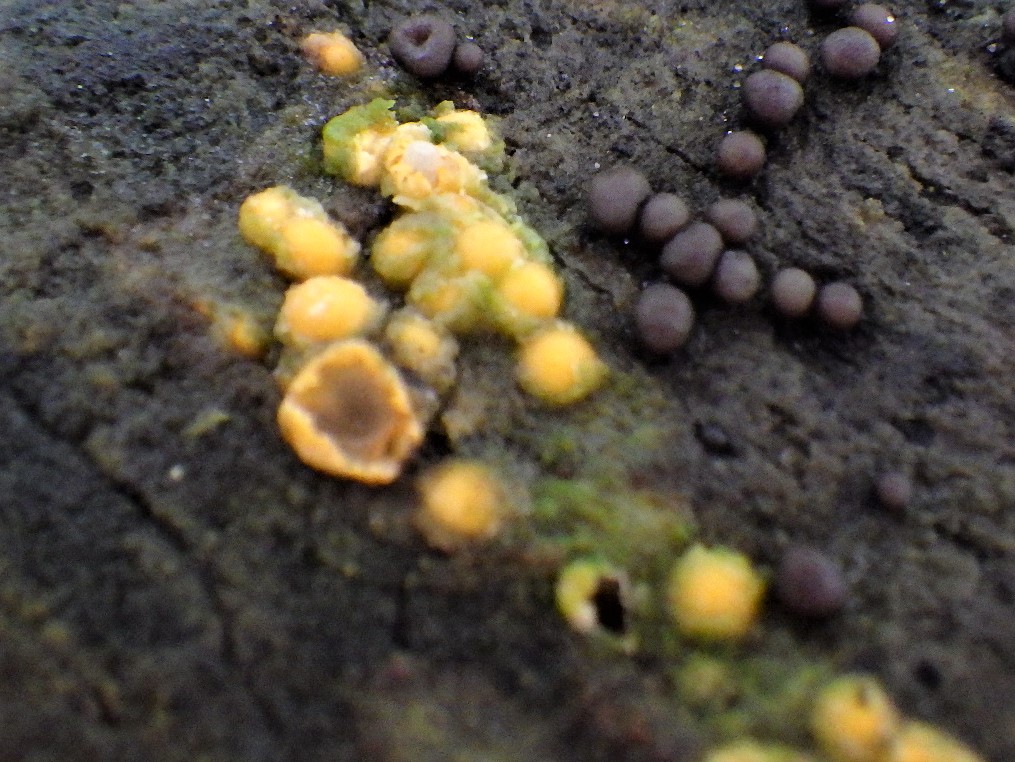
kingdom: Fungi
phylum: Basidiomycota
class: Agaricomycetes
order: Geastrales
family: Geastraceae
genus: Sphaerobolus
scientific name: Sphaerobolus stellatus
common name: bombekaster
